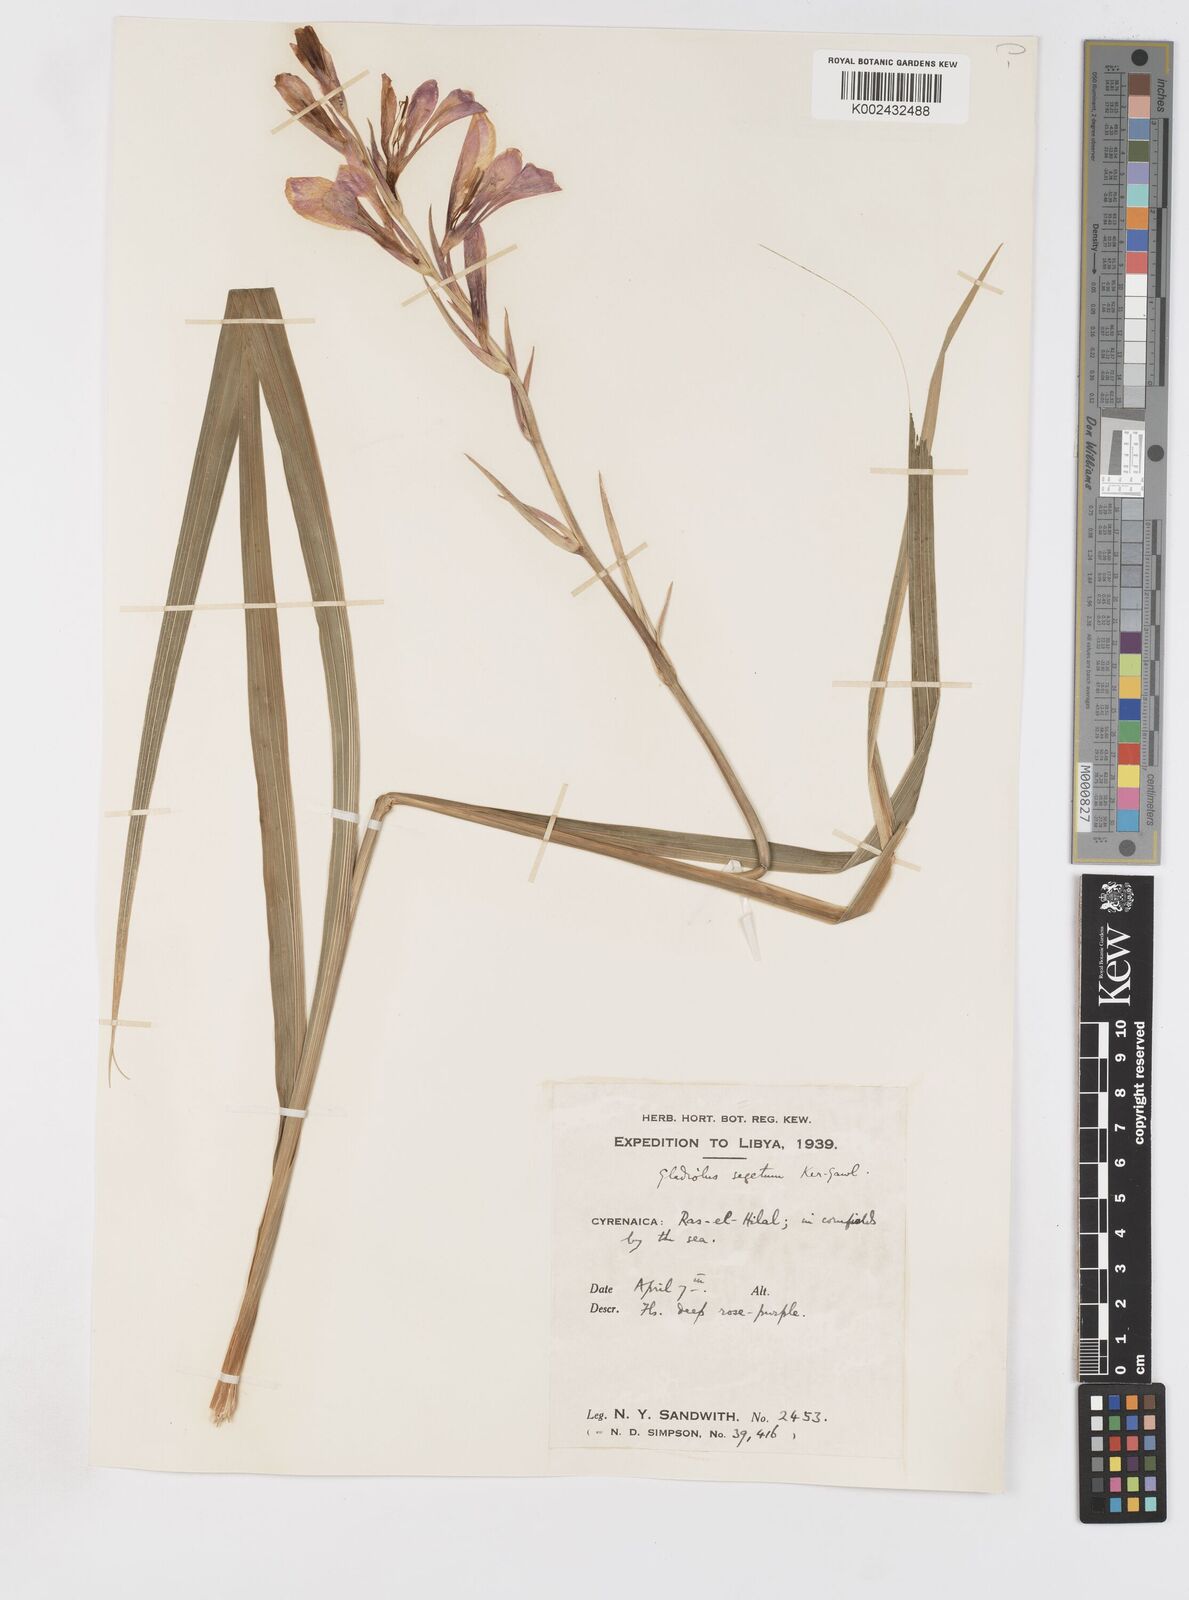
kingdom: Plantae
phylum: Tracheophyta
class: Liliopsida
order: Asparagales
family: Iridaceae
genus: Gladiolus
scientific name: Gladiolus italicus
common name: Field gladiolus
